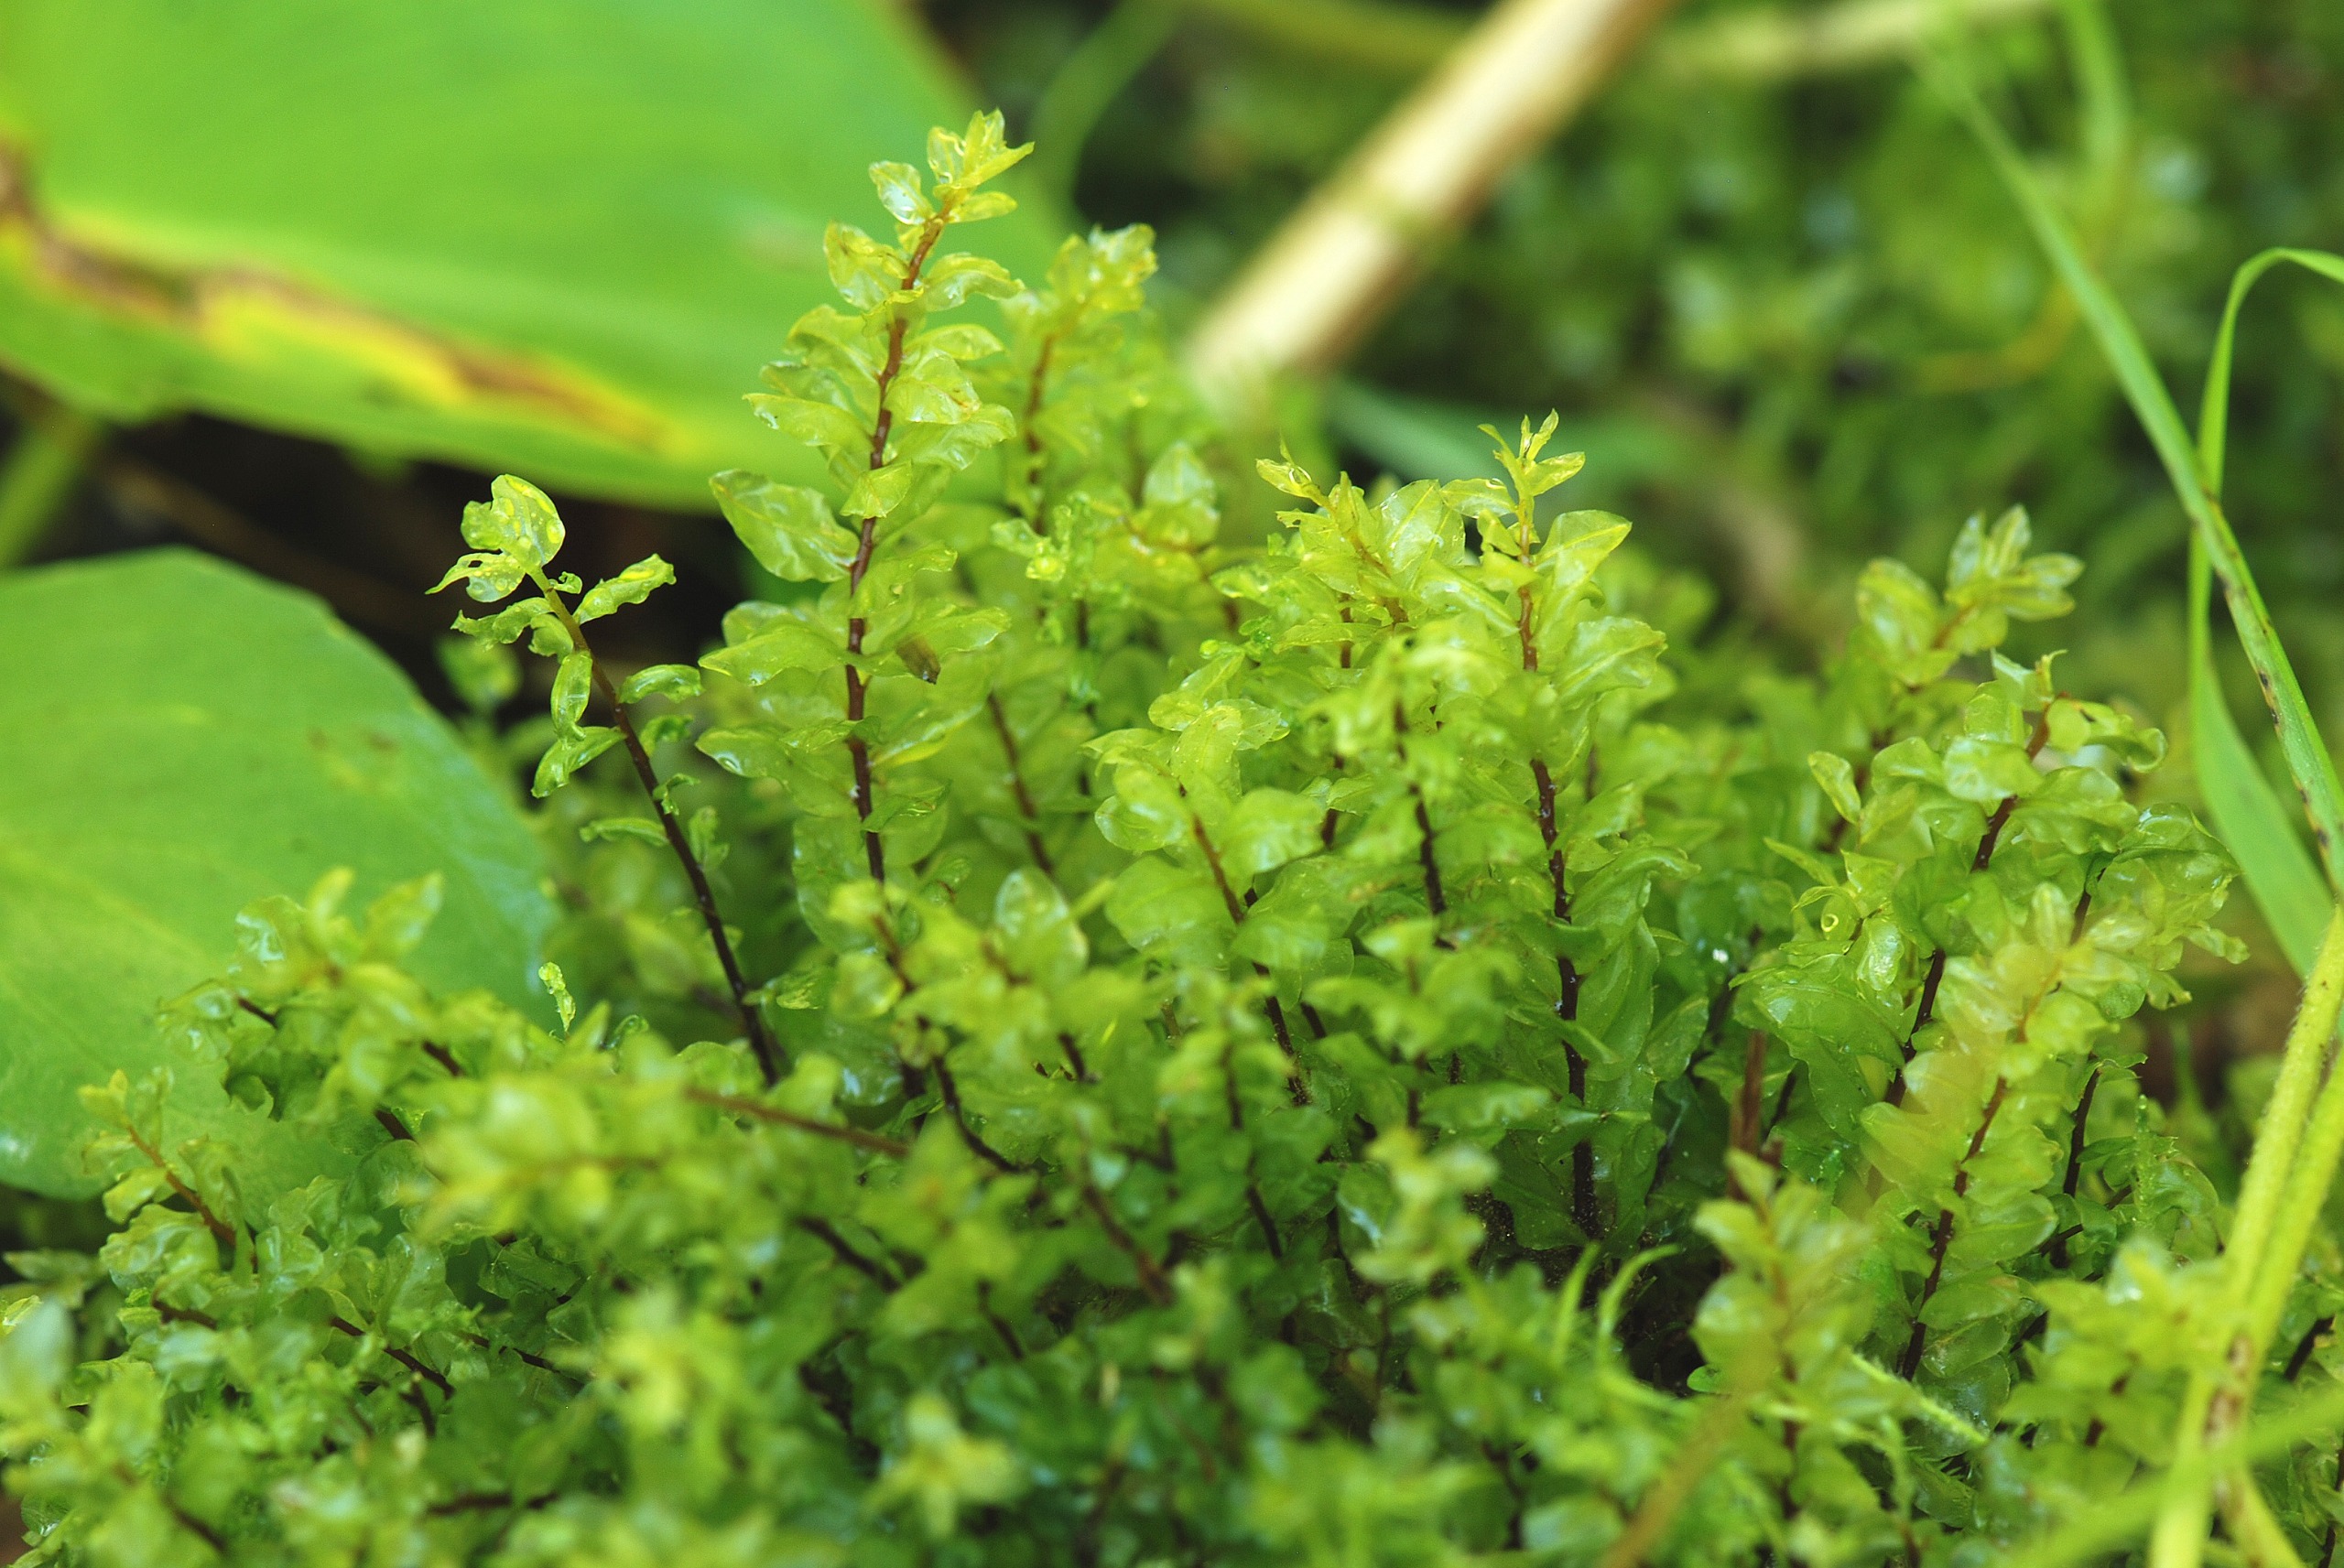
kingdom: Plantae
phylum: Bryophyta
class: Bryopsida
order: Bryales
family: Mniaceae
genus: Pseudobryum
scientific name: Pseudobryum cinclidioides
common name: Sortstænglet sumpmos
